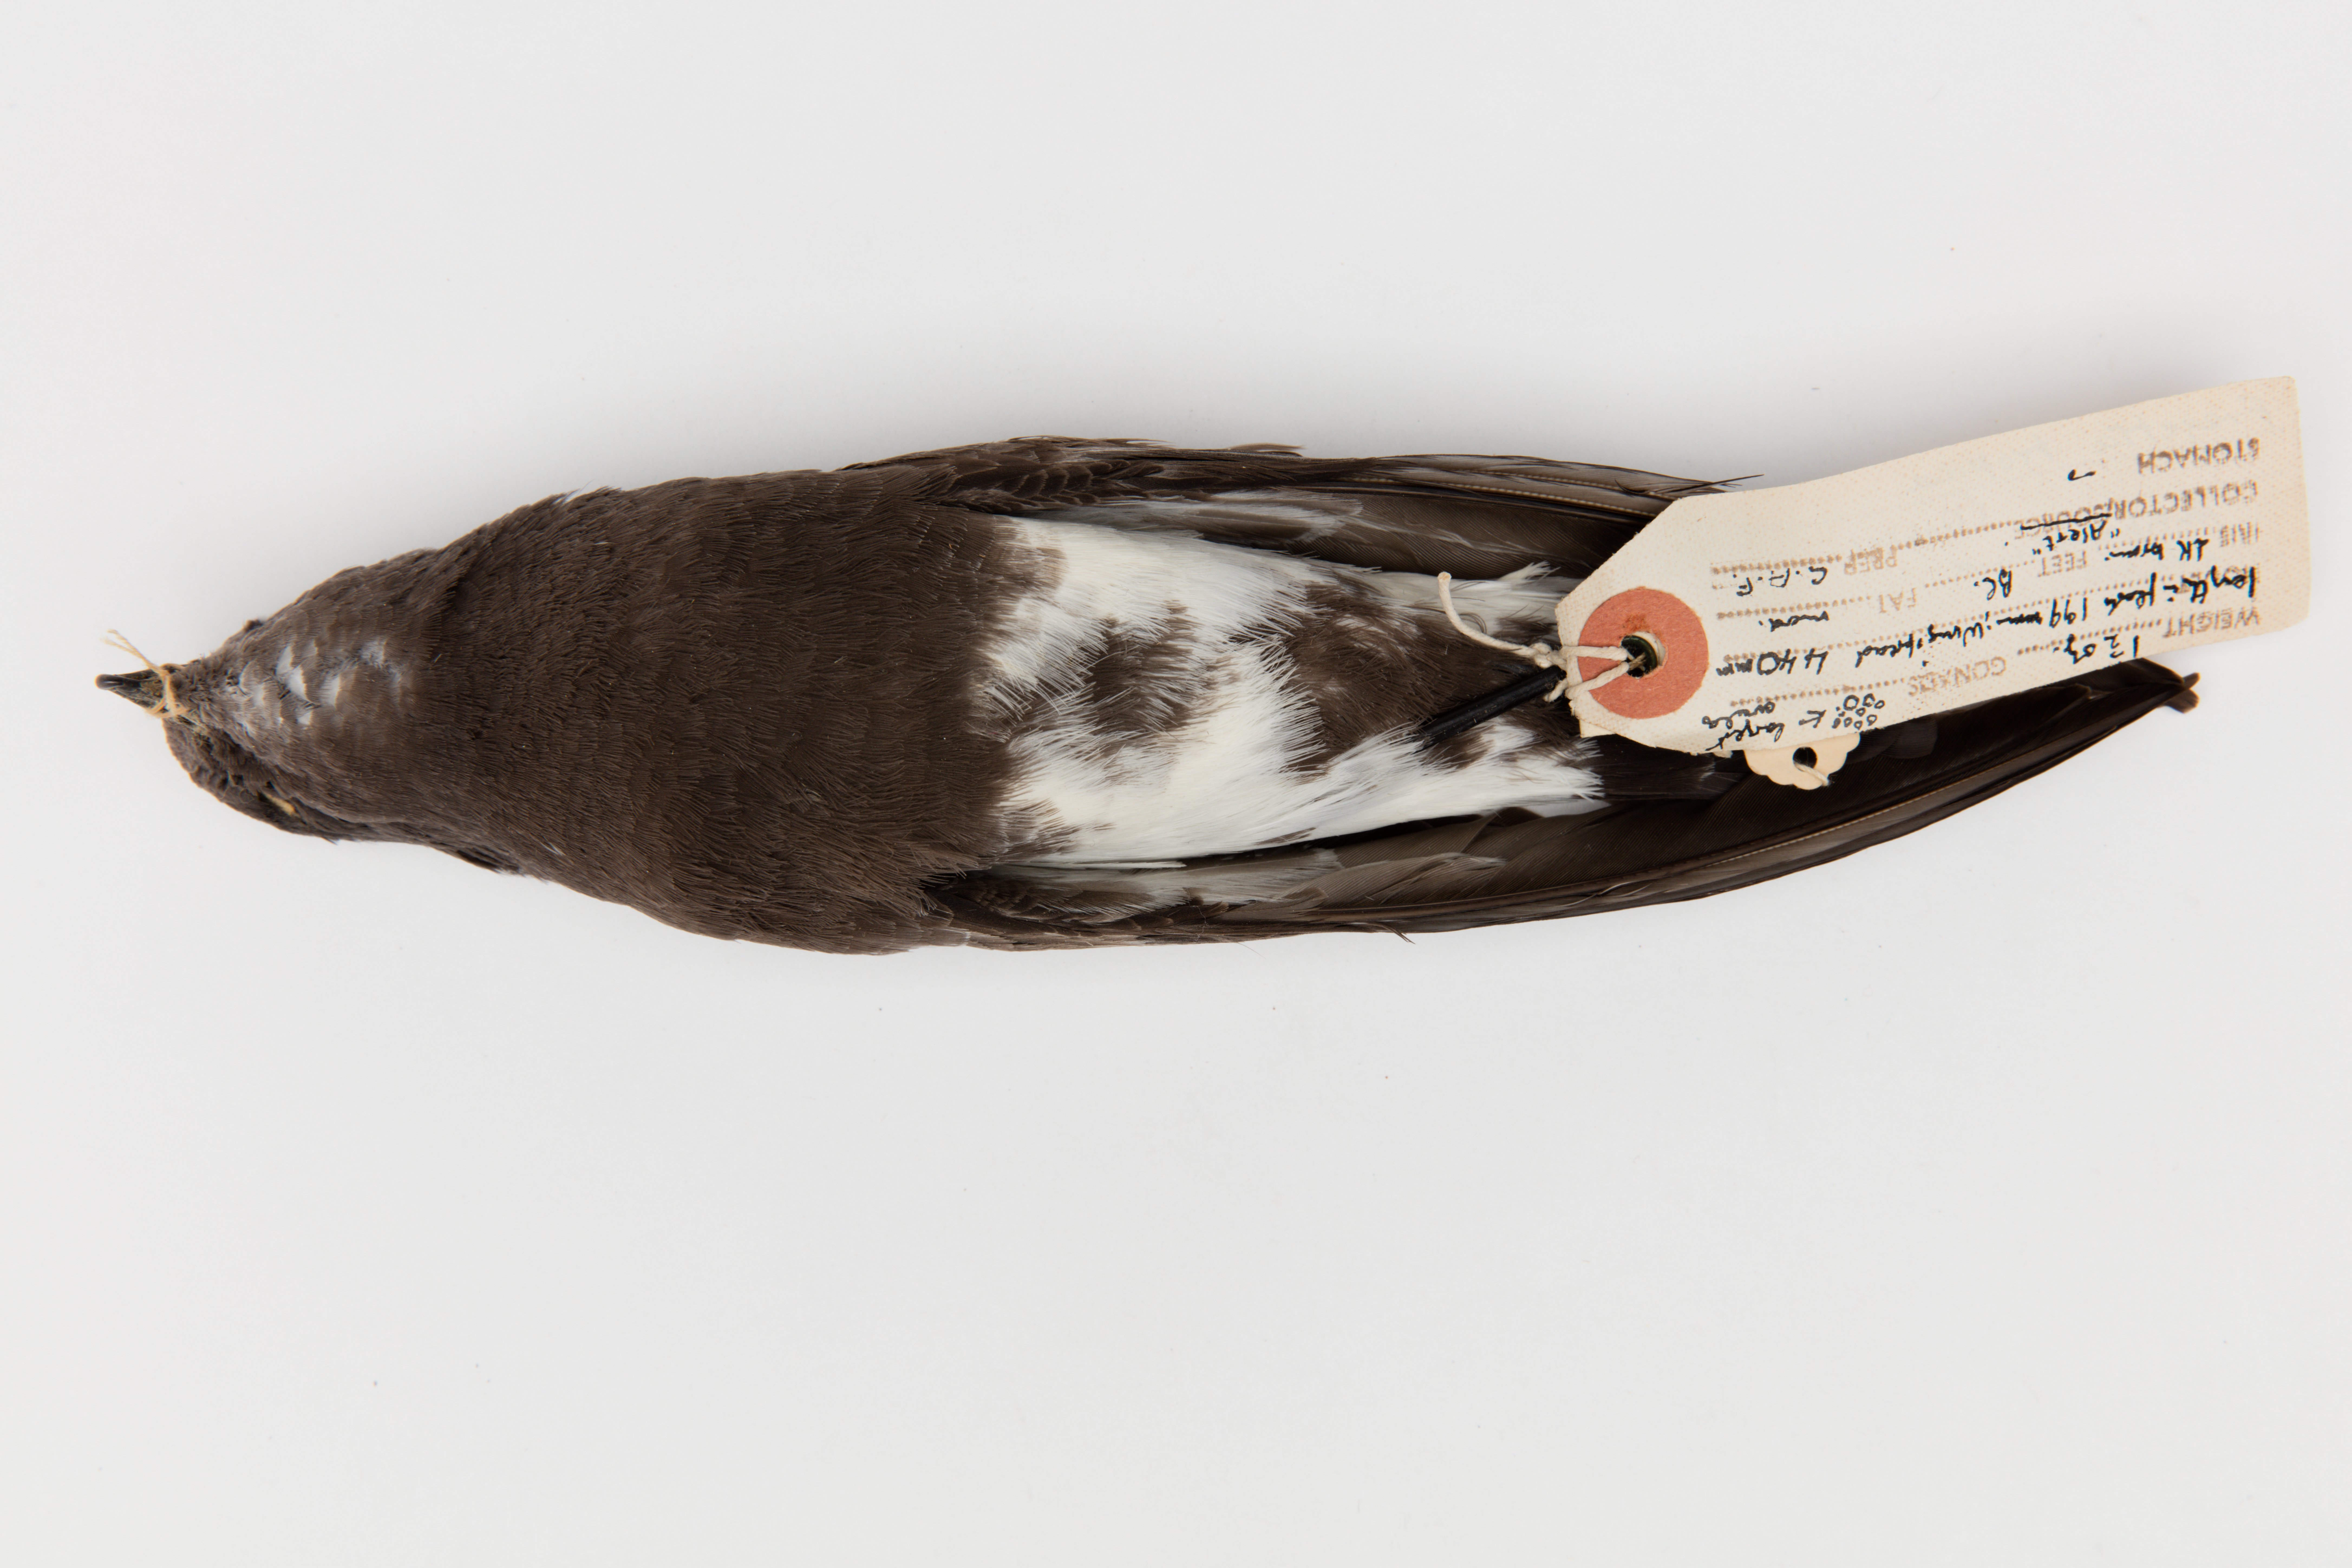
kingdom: Animalia
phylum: Chordata
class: Aves
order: Procellariiformes
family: Hydrobatidae
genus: Fregetta
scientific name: Fregetta tropica
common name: Black-bellied storm-petrel
